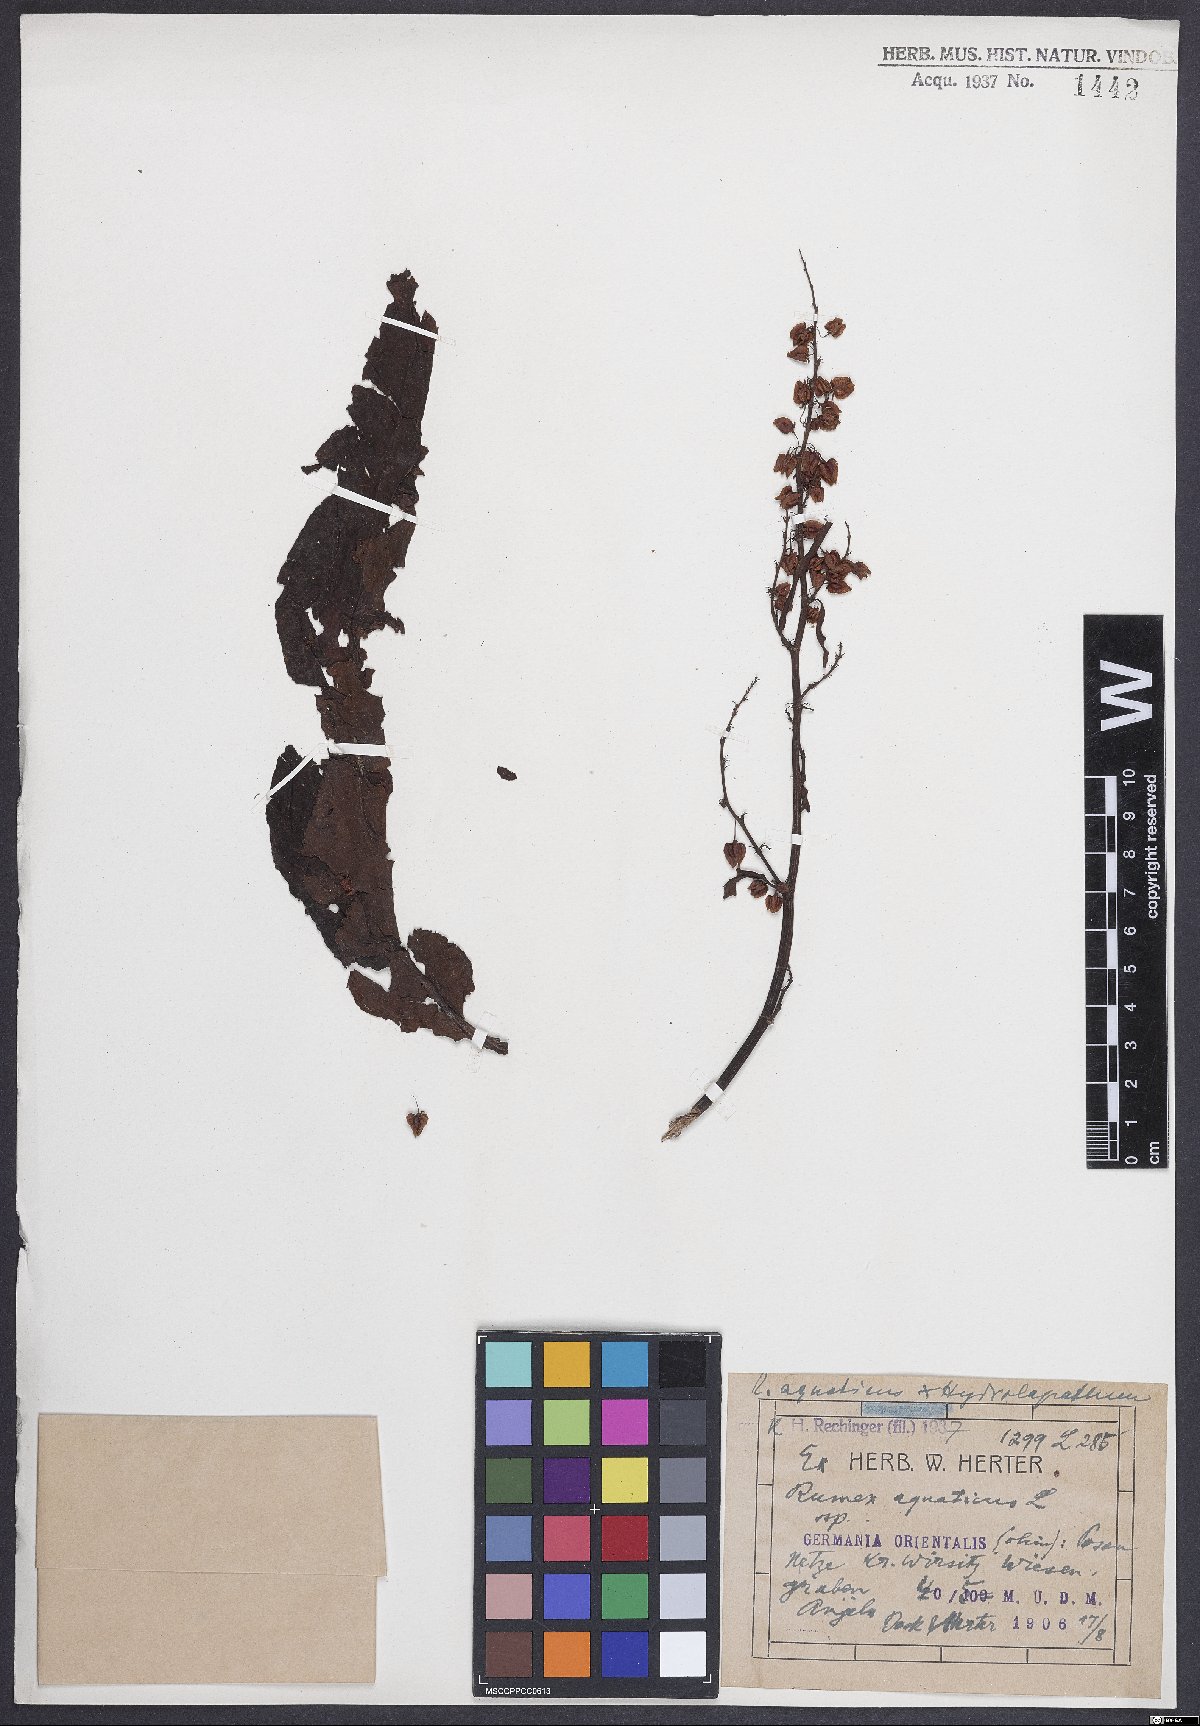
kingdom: Plantae
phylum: Tracheophyta
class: Magnoliopsida
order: Caryophyllales
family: Polygonaceae
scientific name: Polygonaceae
